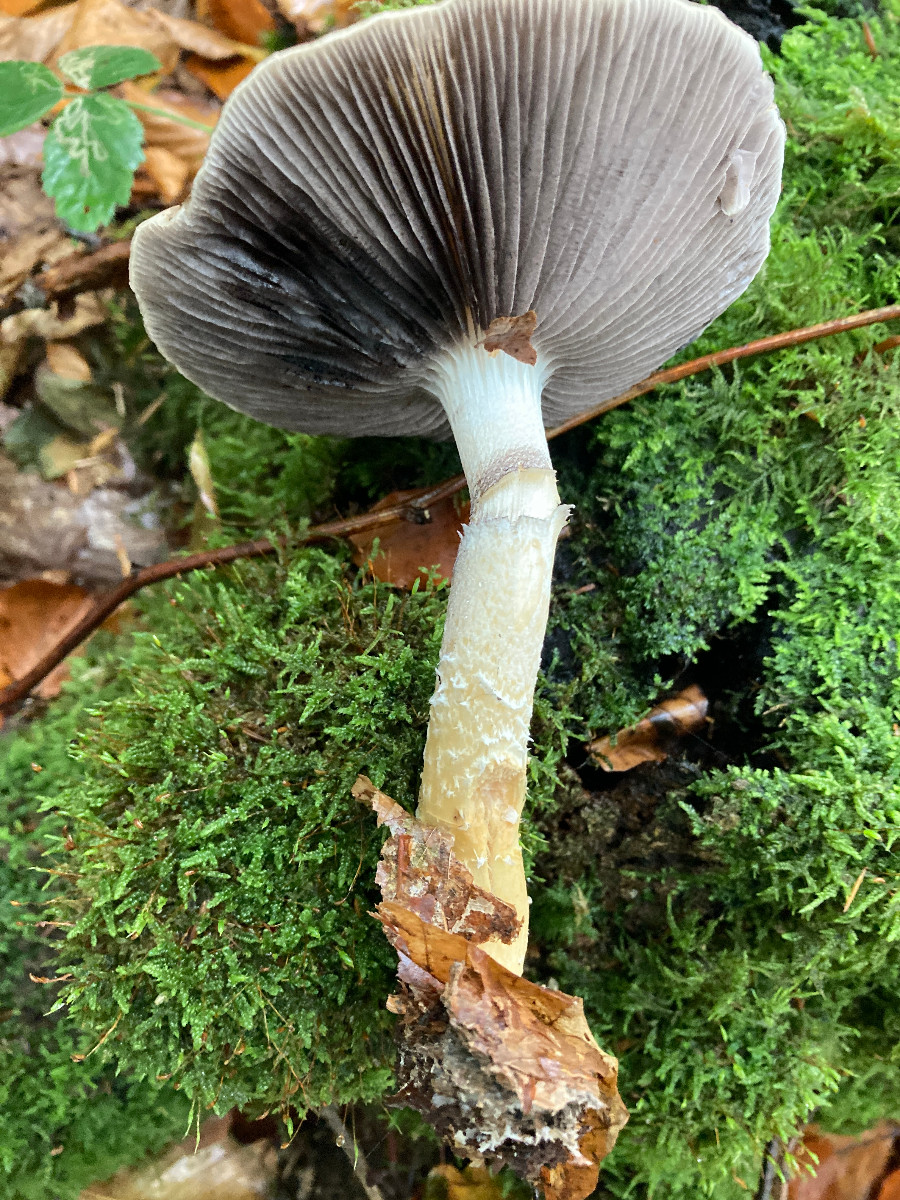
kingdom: Fungi
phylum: Basidiomycota
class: Agaricomycetes
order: Agaricales
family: Strophariaceae
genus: Stropharia
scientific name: Stropharia hornemannii
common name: nordisk bredblad
